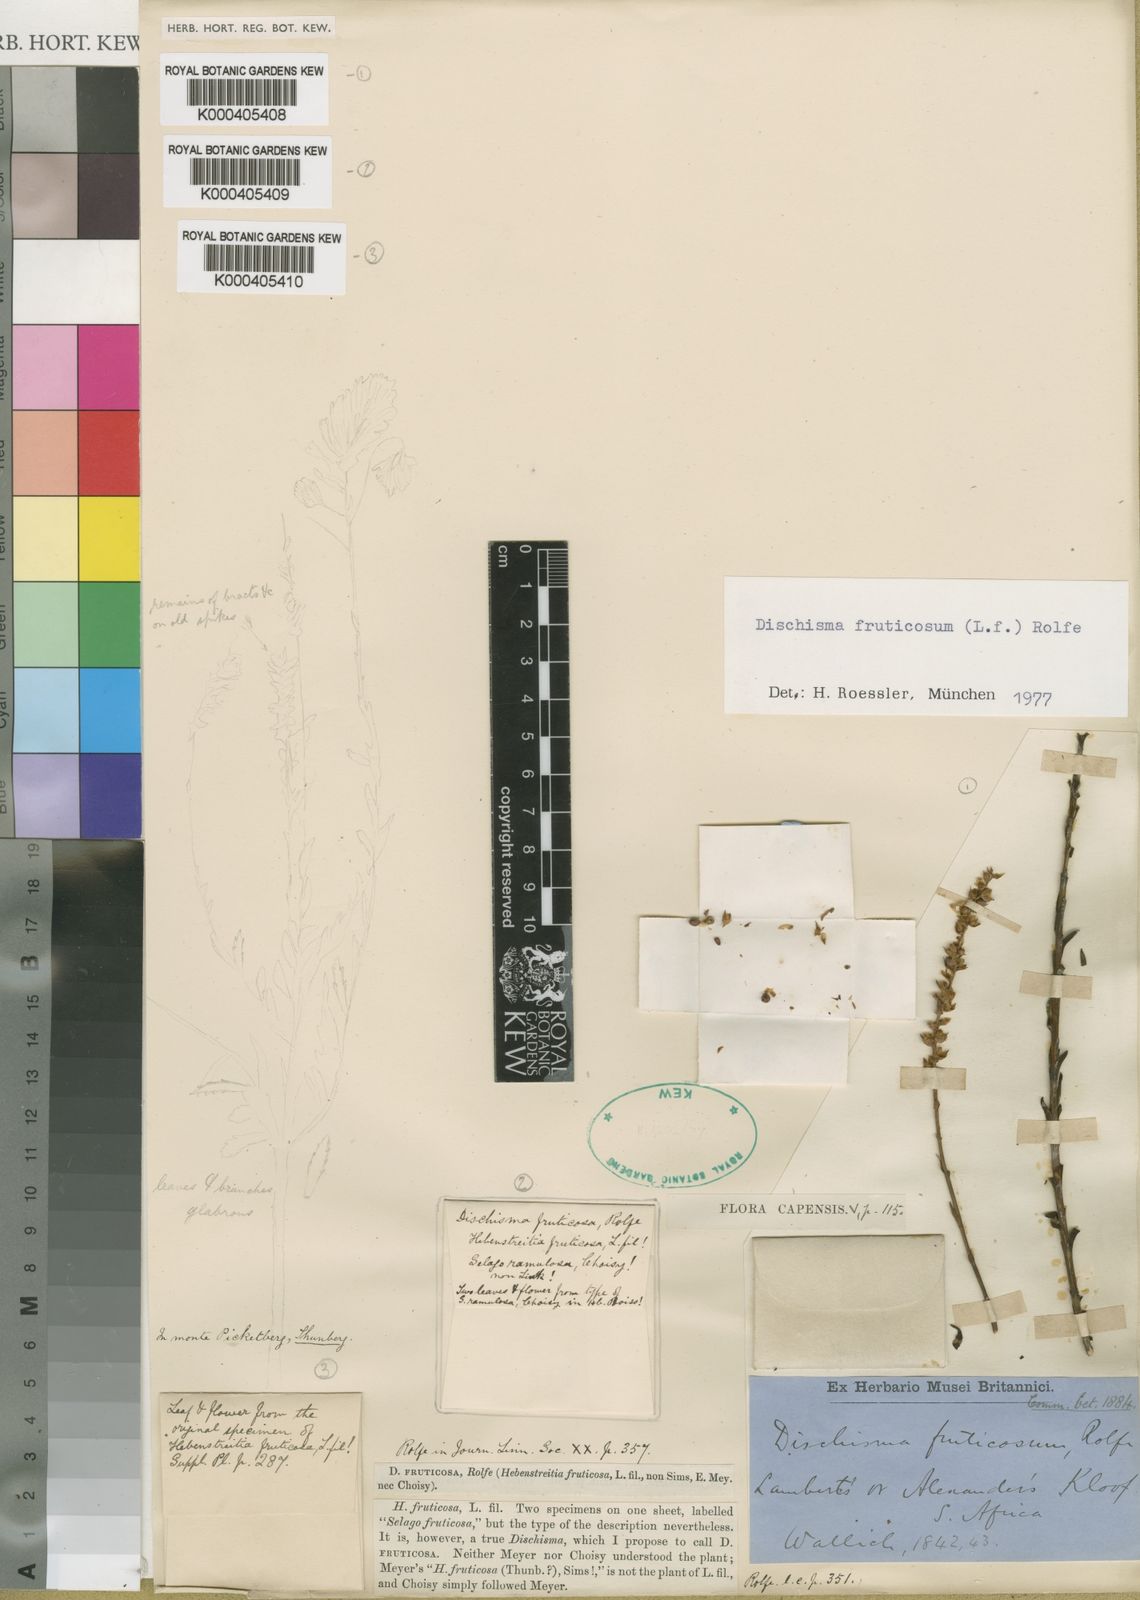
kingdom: Plantae
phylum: Tracheophyta
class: Magnoliopsida
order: Lamiales
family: Scrophulariaceae
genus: Dischisma
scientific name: Dischisma fruticosum
